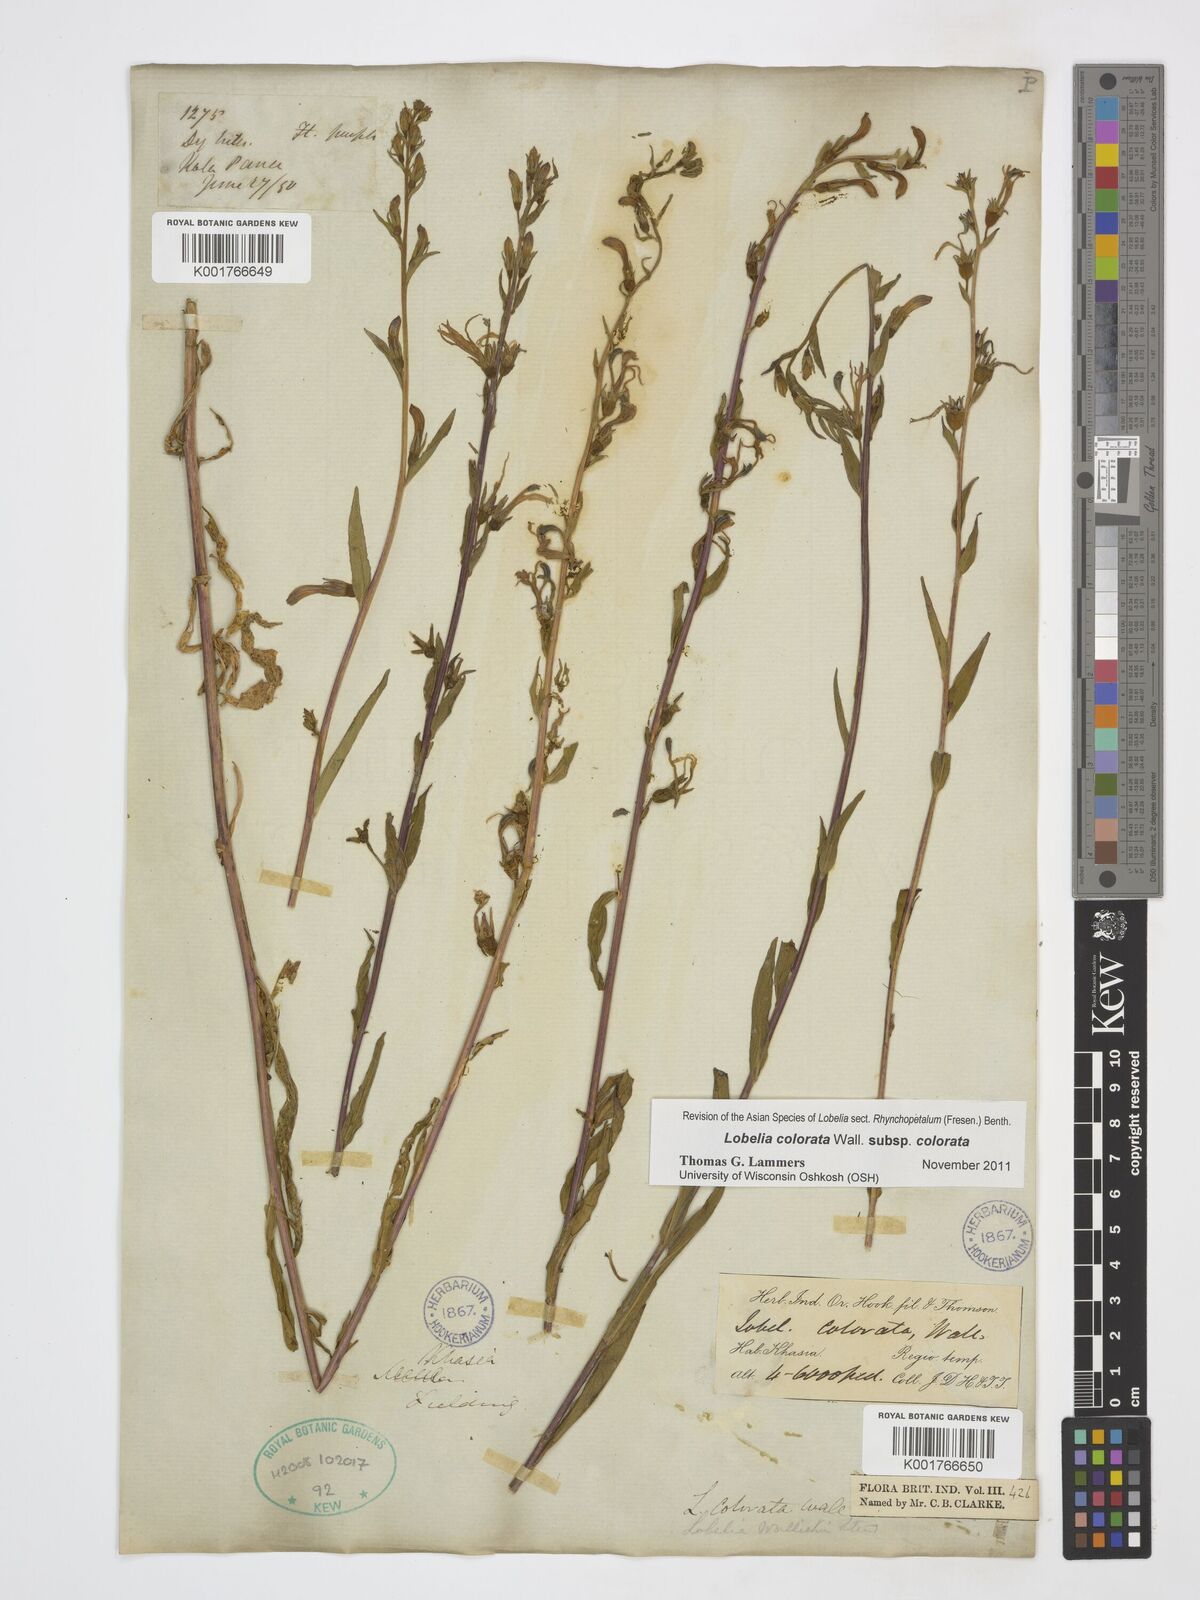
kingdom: Plantae
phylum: Tracheophyta
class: Magnoliopsida
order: Asterales
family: Campanulaceae
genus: Lobelia
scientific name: Lobelia nicotianifolia
